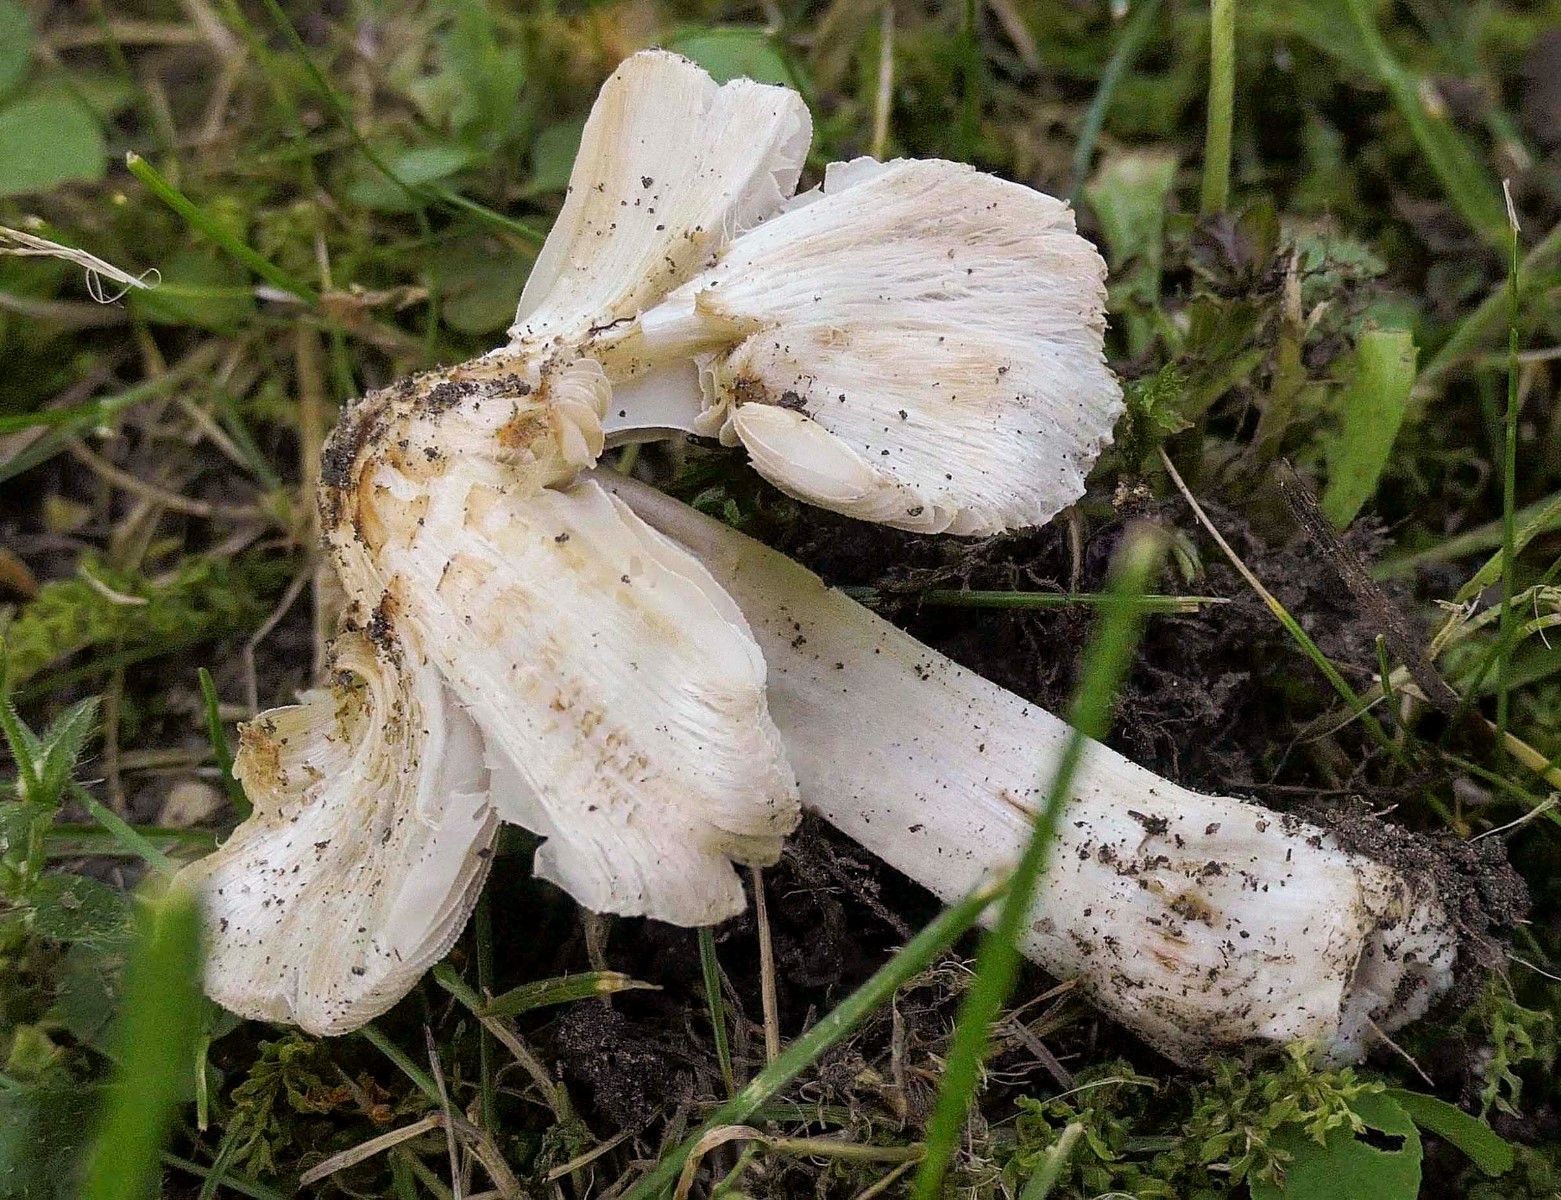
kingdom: Fungi
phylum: Basidiomycota
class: Agaricomycetes
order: Agaricales
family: Inocybaceae
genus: Inosperma
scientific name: Inosperma erubescens
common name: giftig trævlhat
